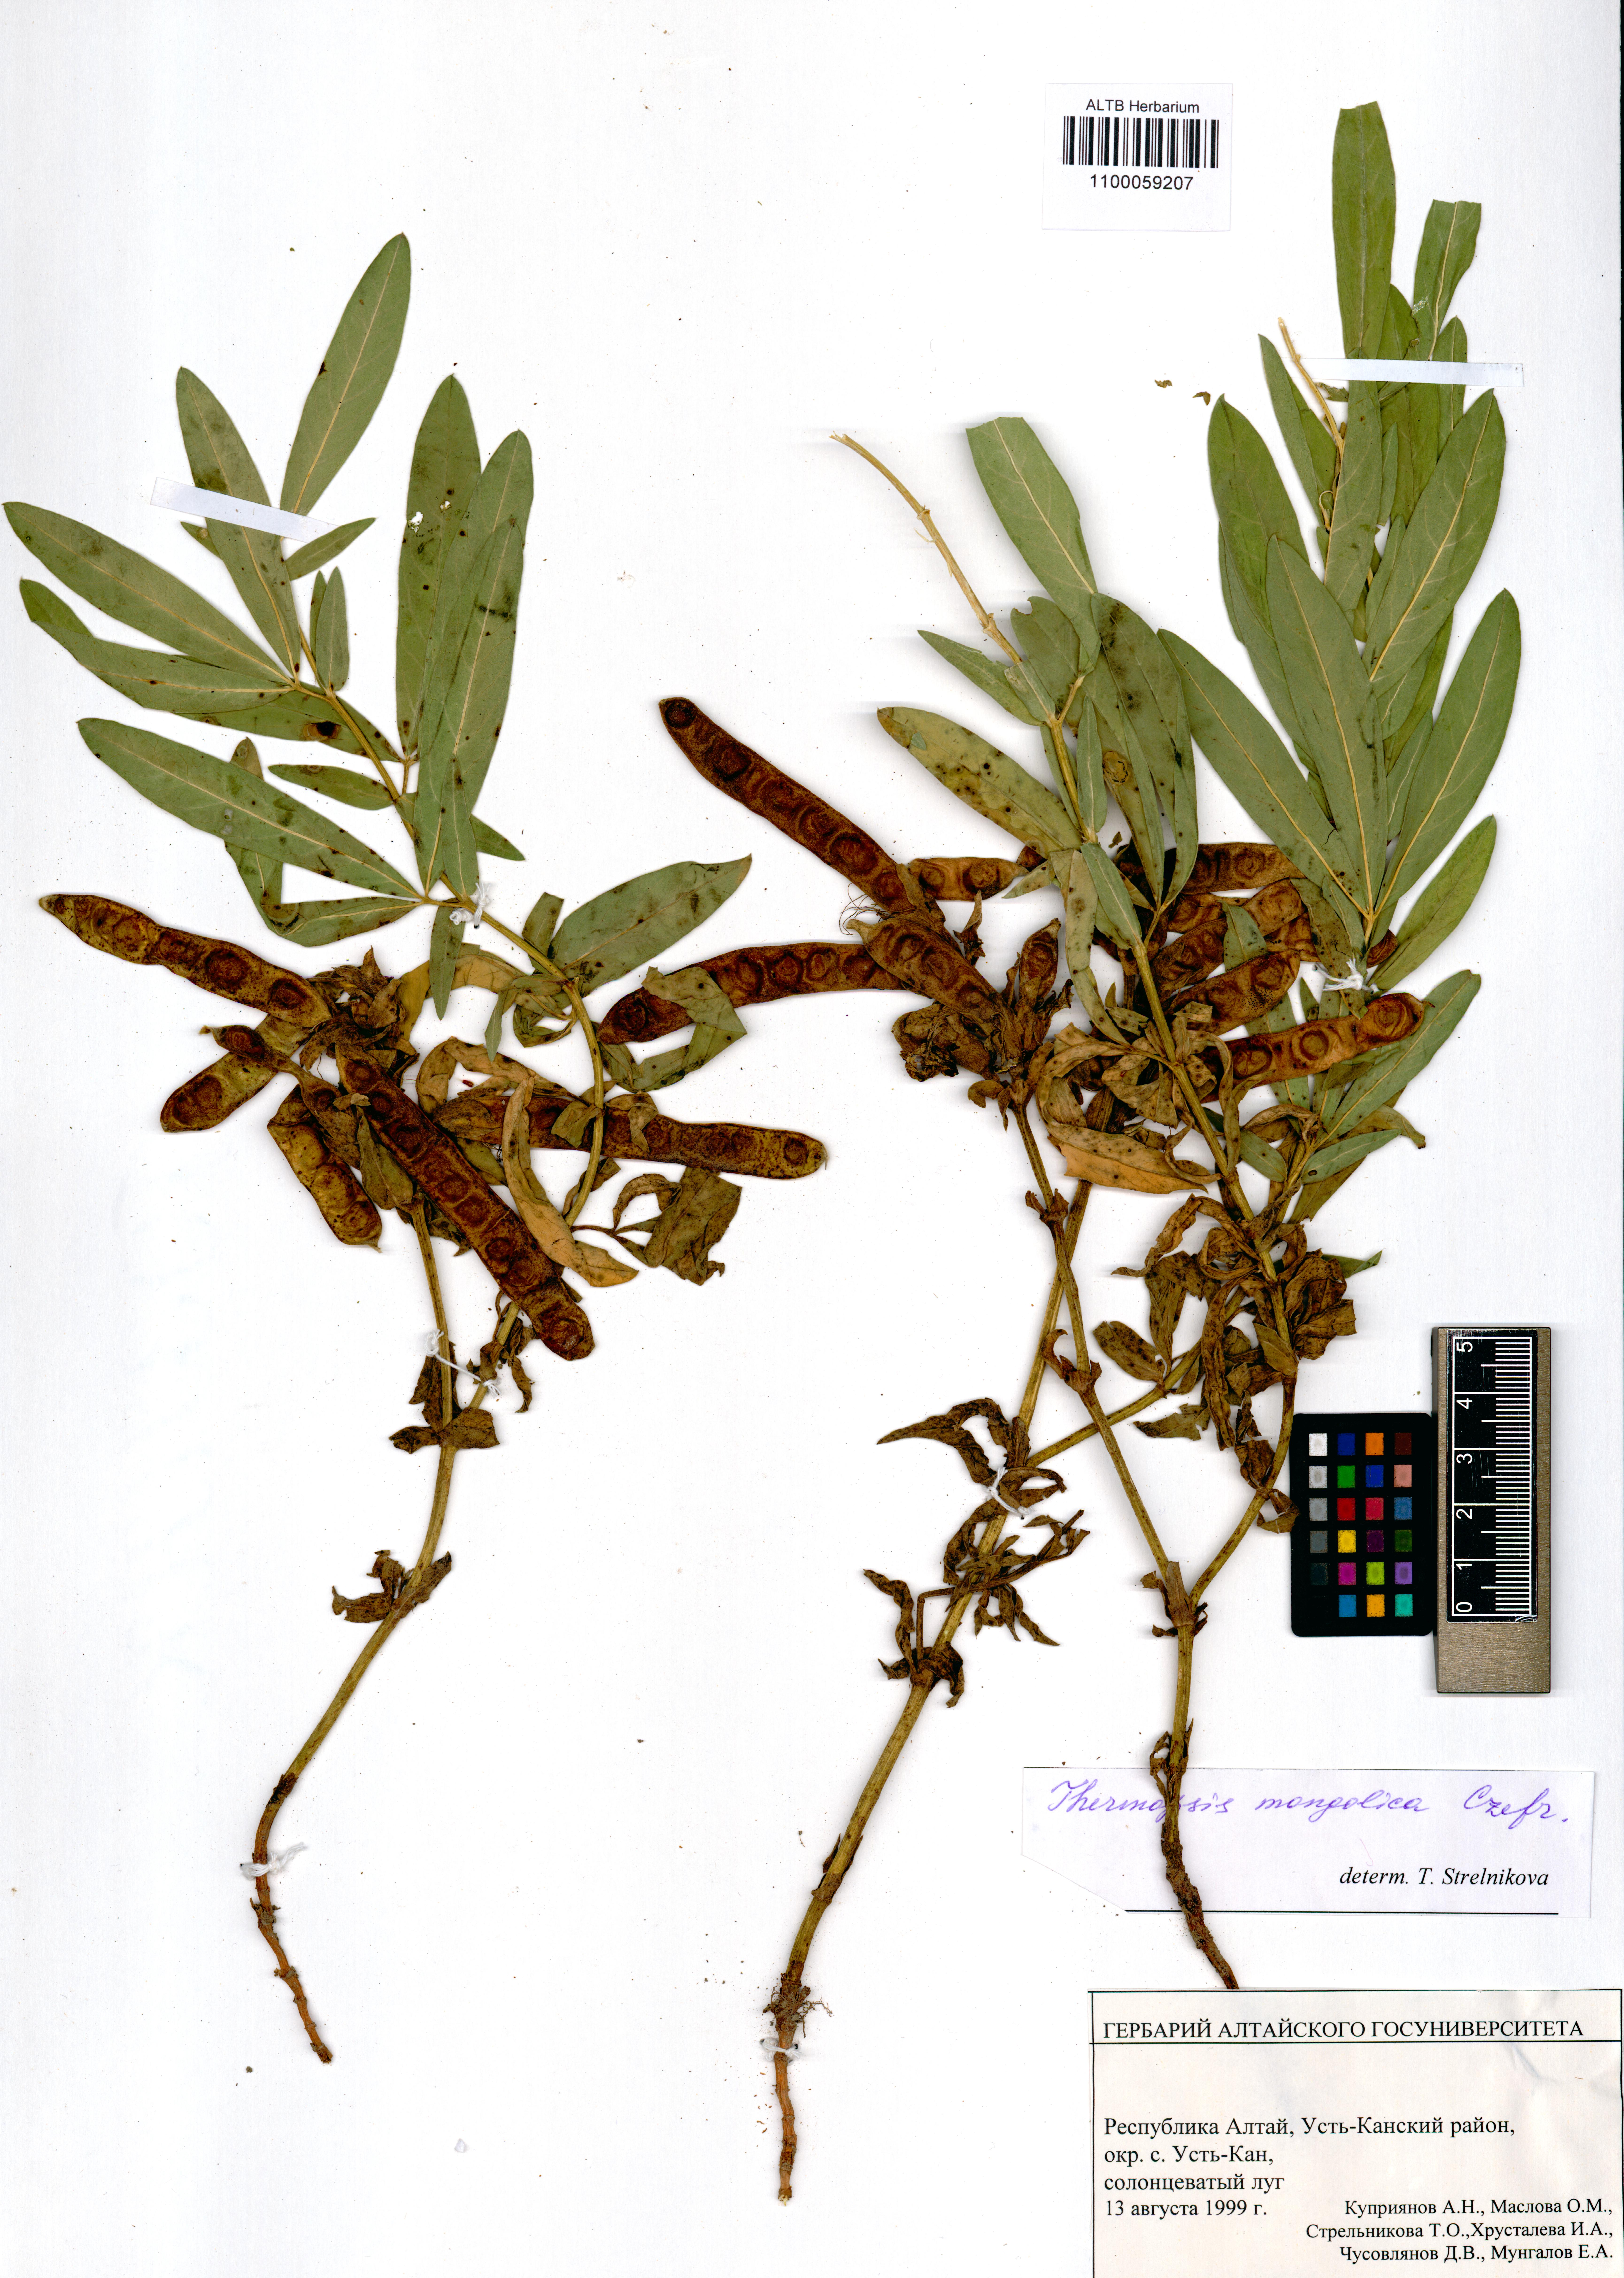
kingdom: Plantae
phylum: Tracheophyta
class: Magnoliopsida
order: Fabales
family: Fabaceae
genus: Thermopsis
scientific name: Thermopsis mongolica
